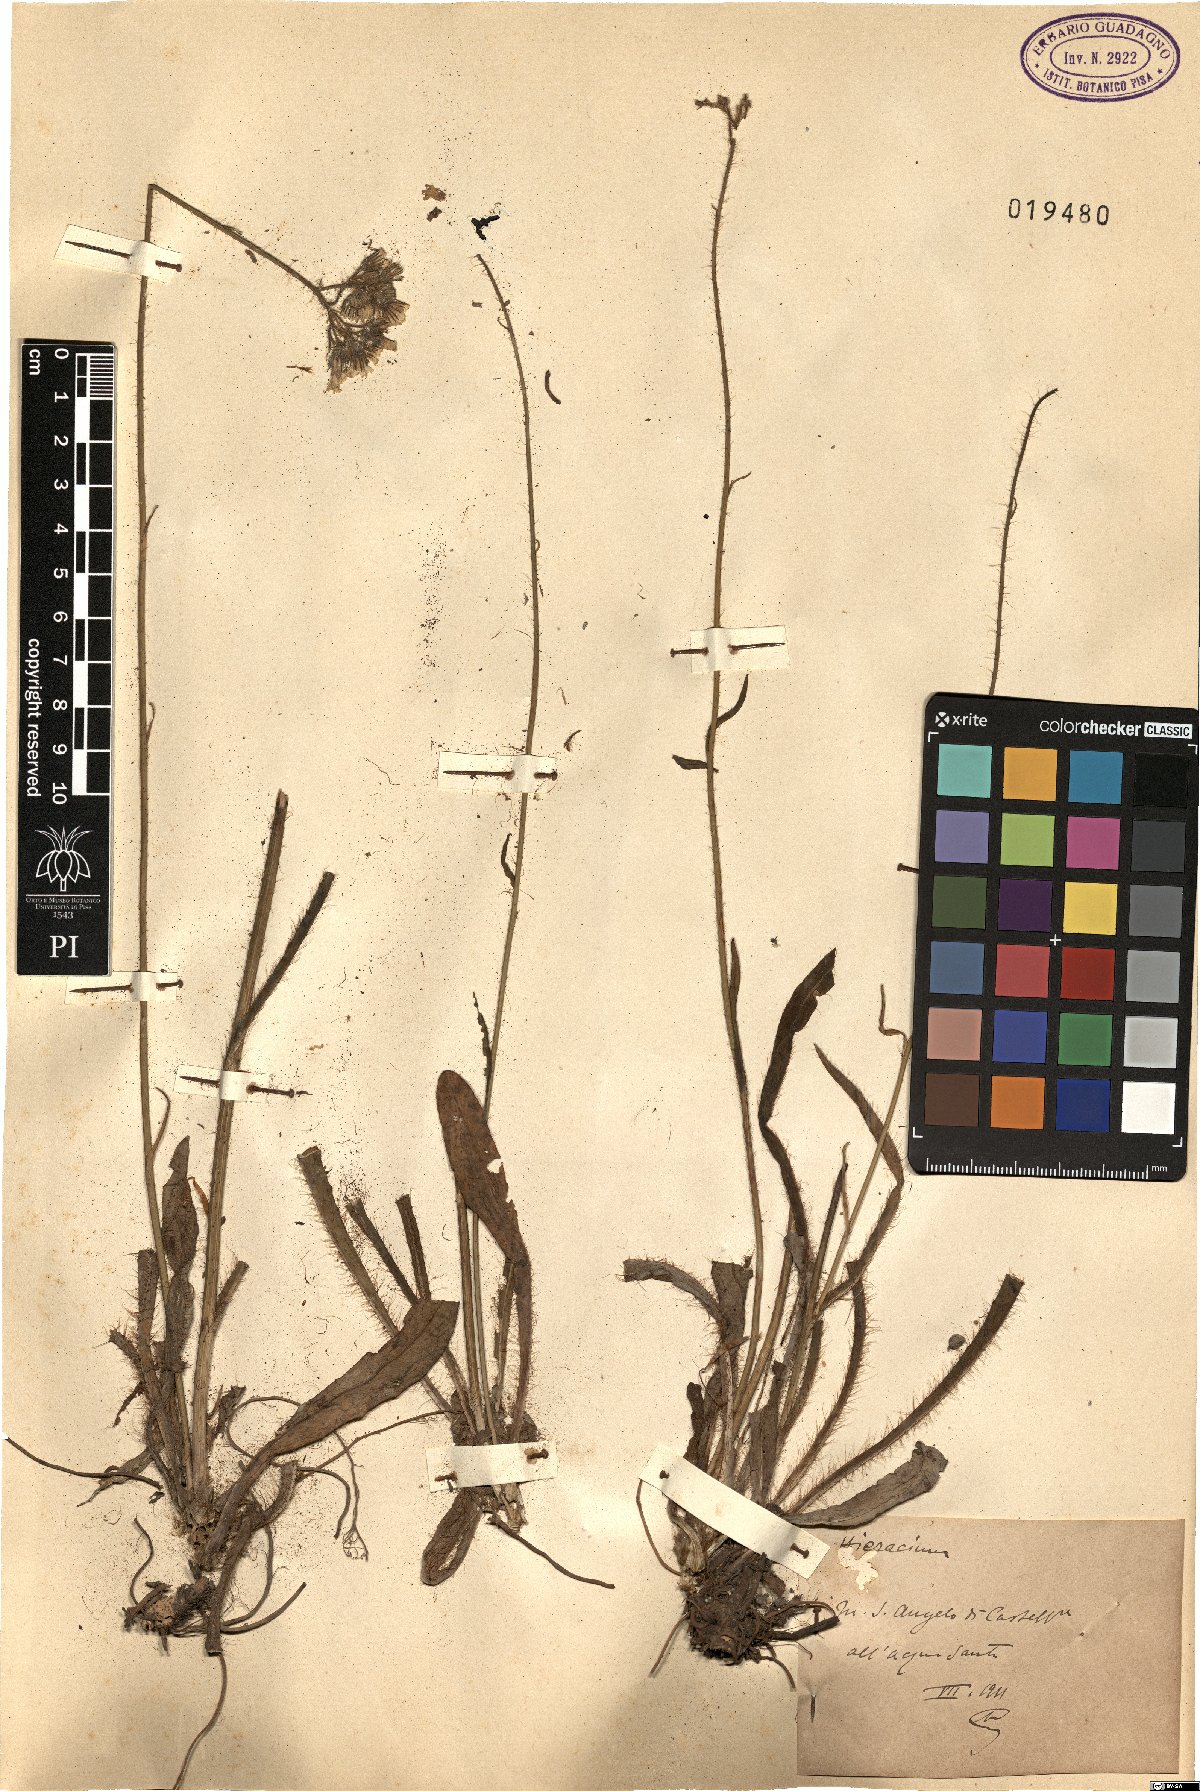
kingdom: Plantae
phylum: Tracheophyta
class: Magnoliopsida
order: Asterales
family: Asteraceae
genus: Hieracium
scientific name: Hieracium
